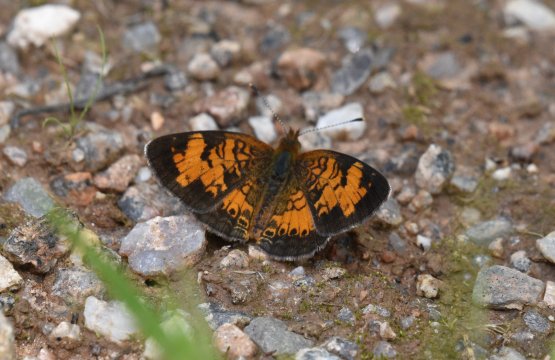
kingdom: Animalia
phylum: Arthropoda
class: Insecta
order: Lepidoptera
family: Nymphalidae
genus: Phyciodes
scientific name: Phyciodes tharos
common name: Northern Crescent
